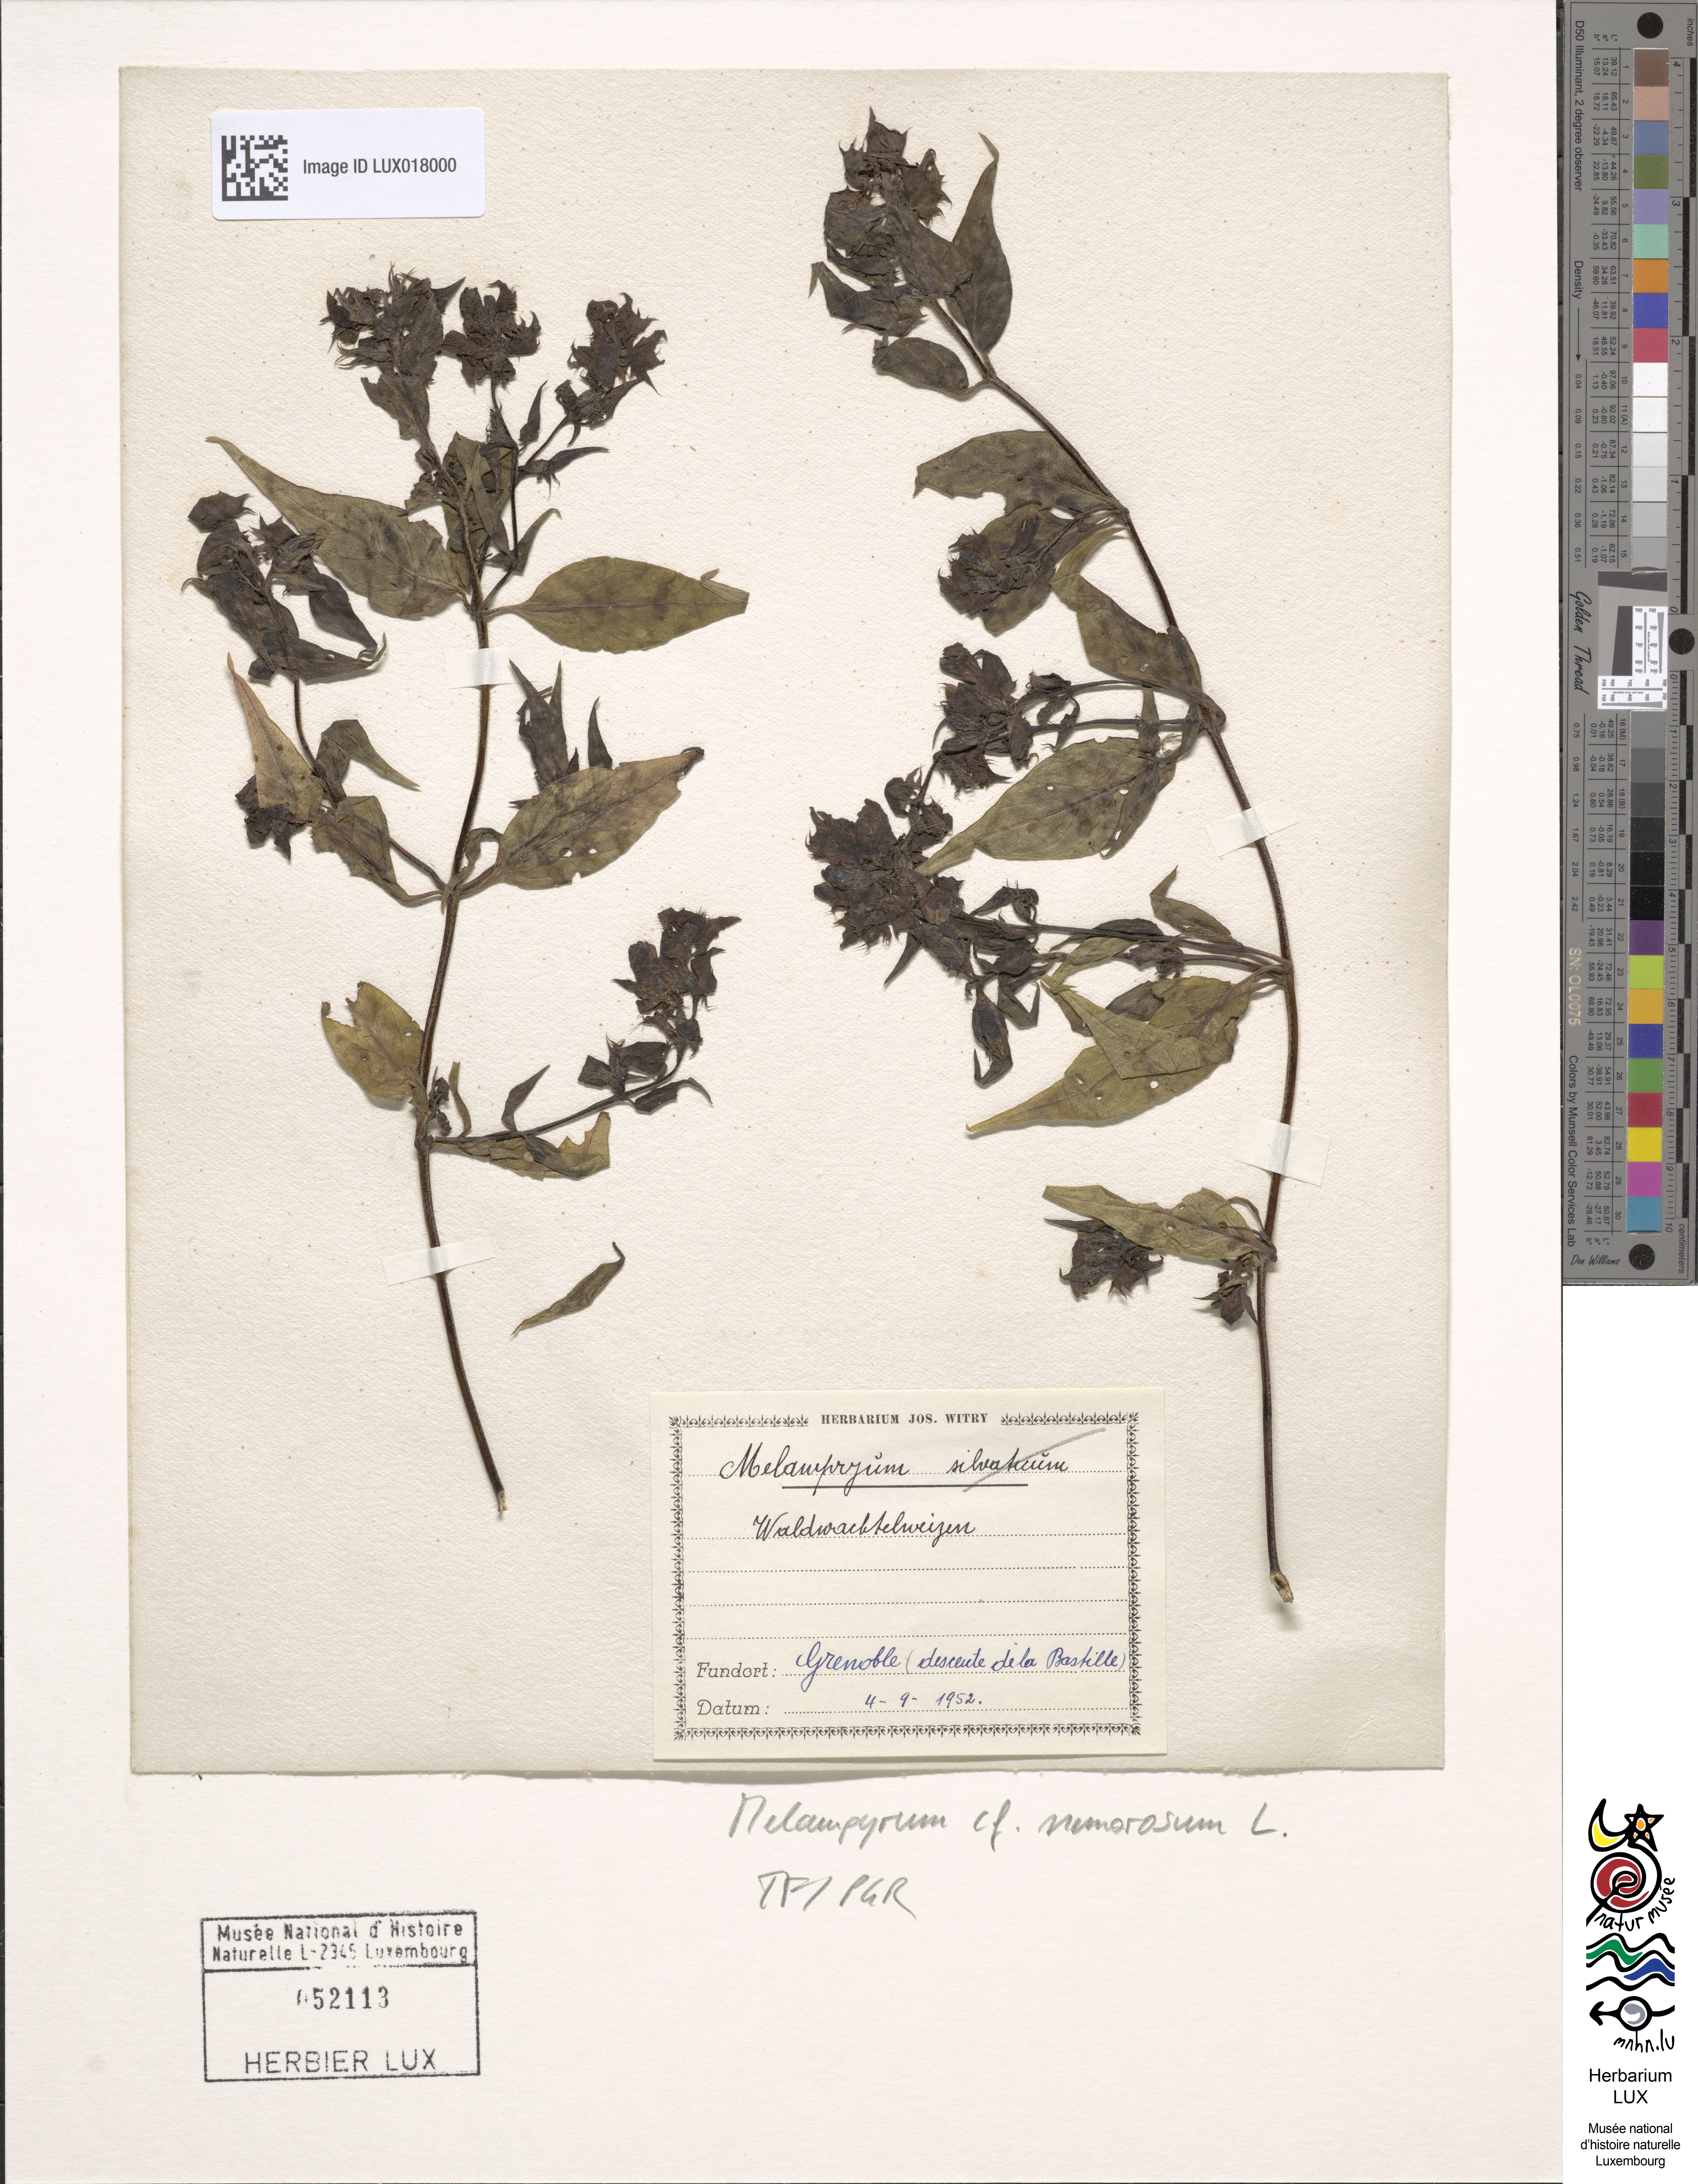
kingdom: Plantae
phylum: Tracheophyta
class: Magnoliopsida
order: Lamiales
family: Orobanchaceae
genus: Melampyrum
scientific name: Melampyrum nemorosum
